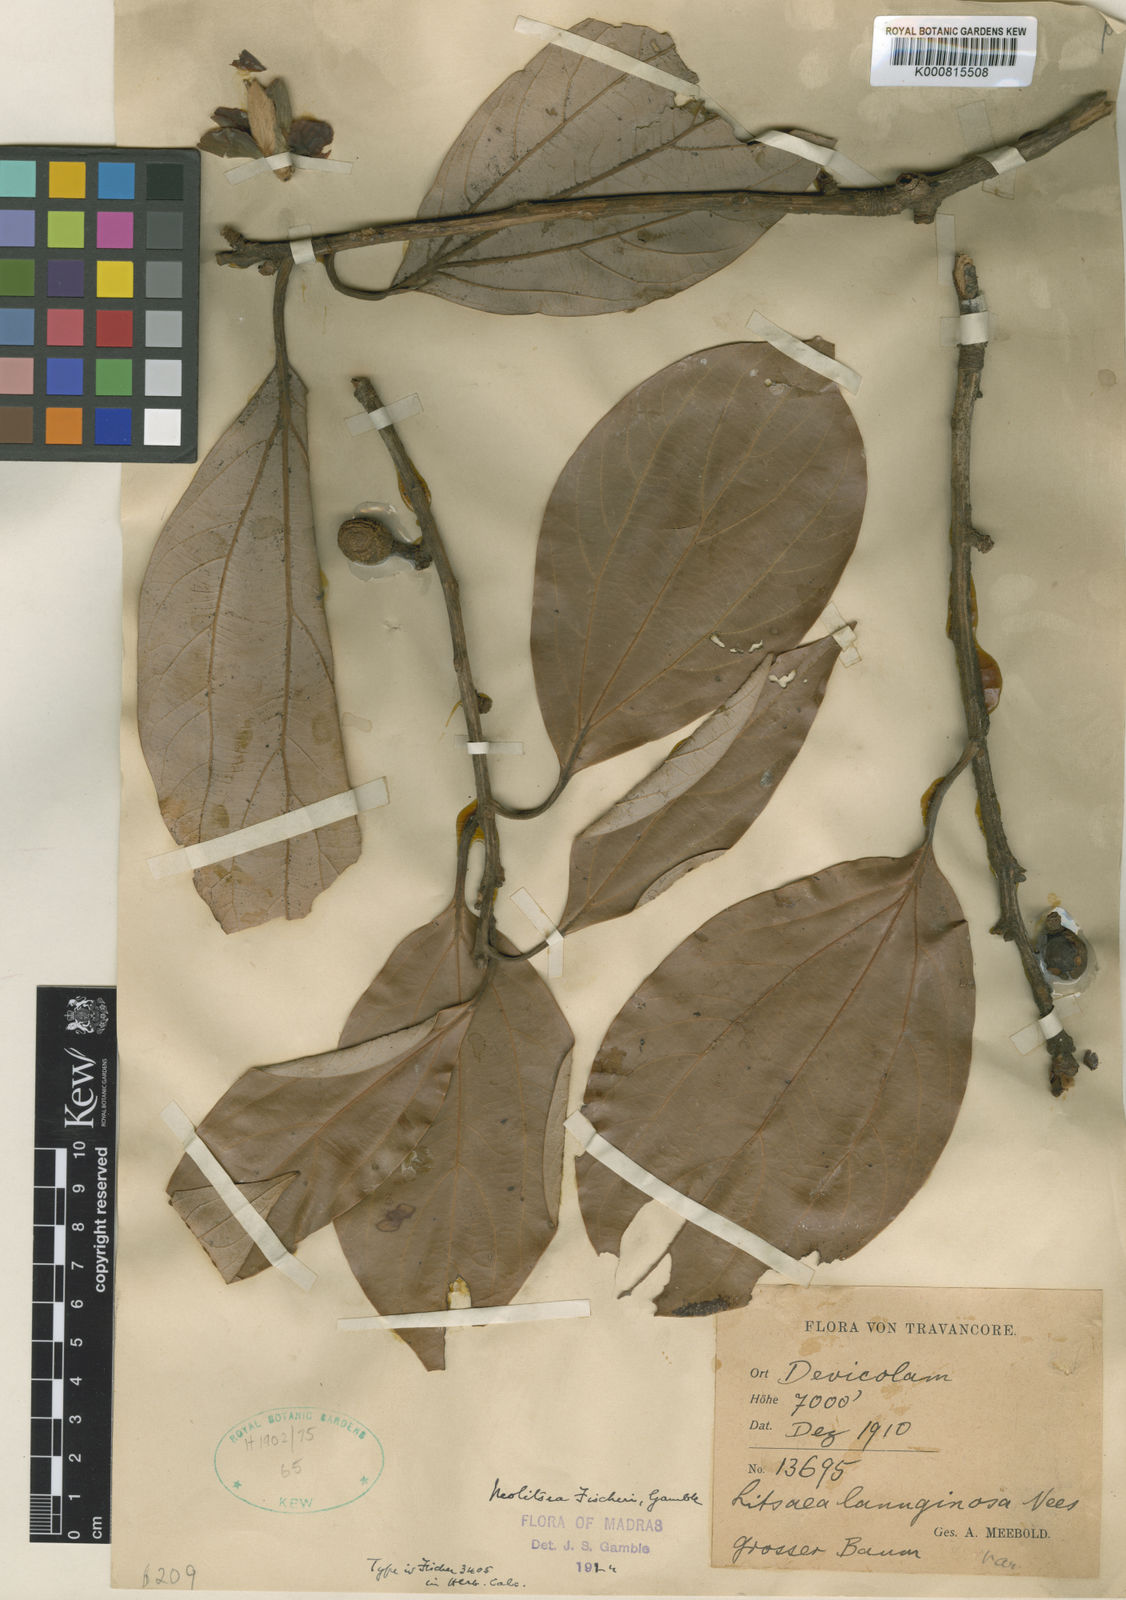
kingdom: Plantae
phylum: Tracheophyta
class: Magnoliopsida
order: Laurales
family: Lauraceae
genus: Neolitsea
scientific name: Neolitsea fischeri
